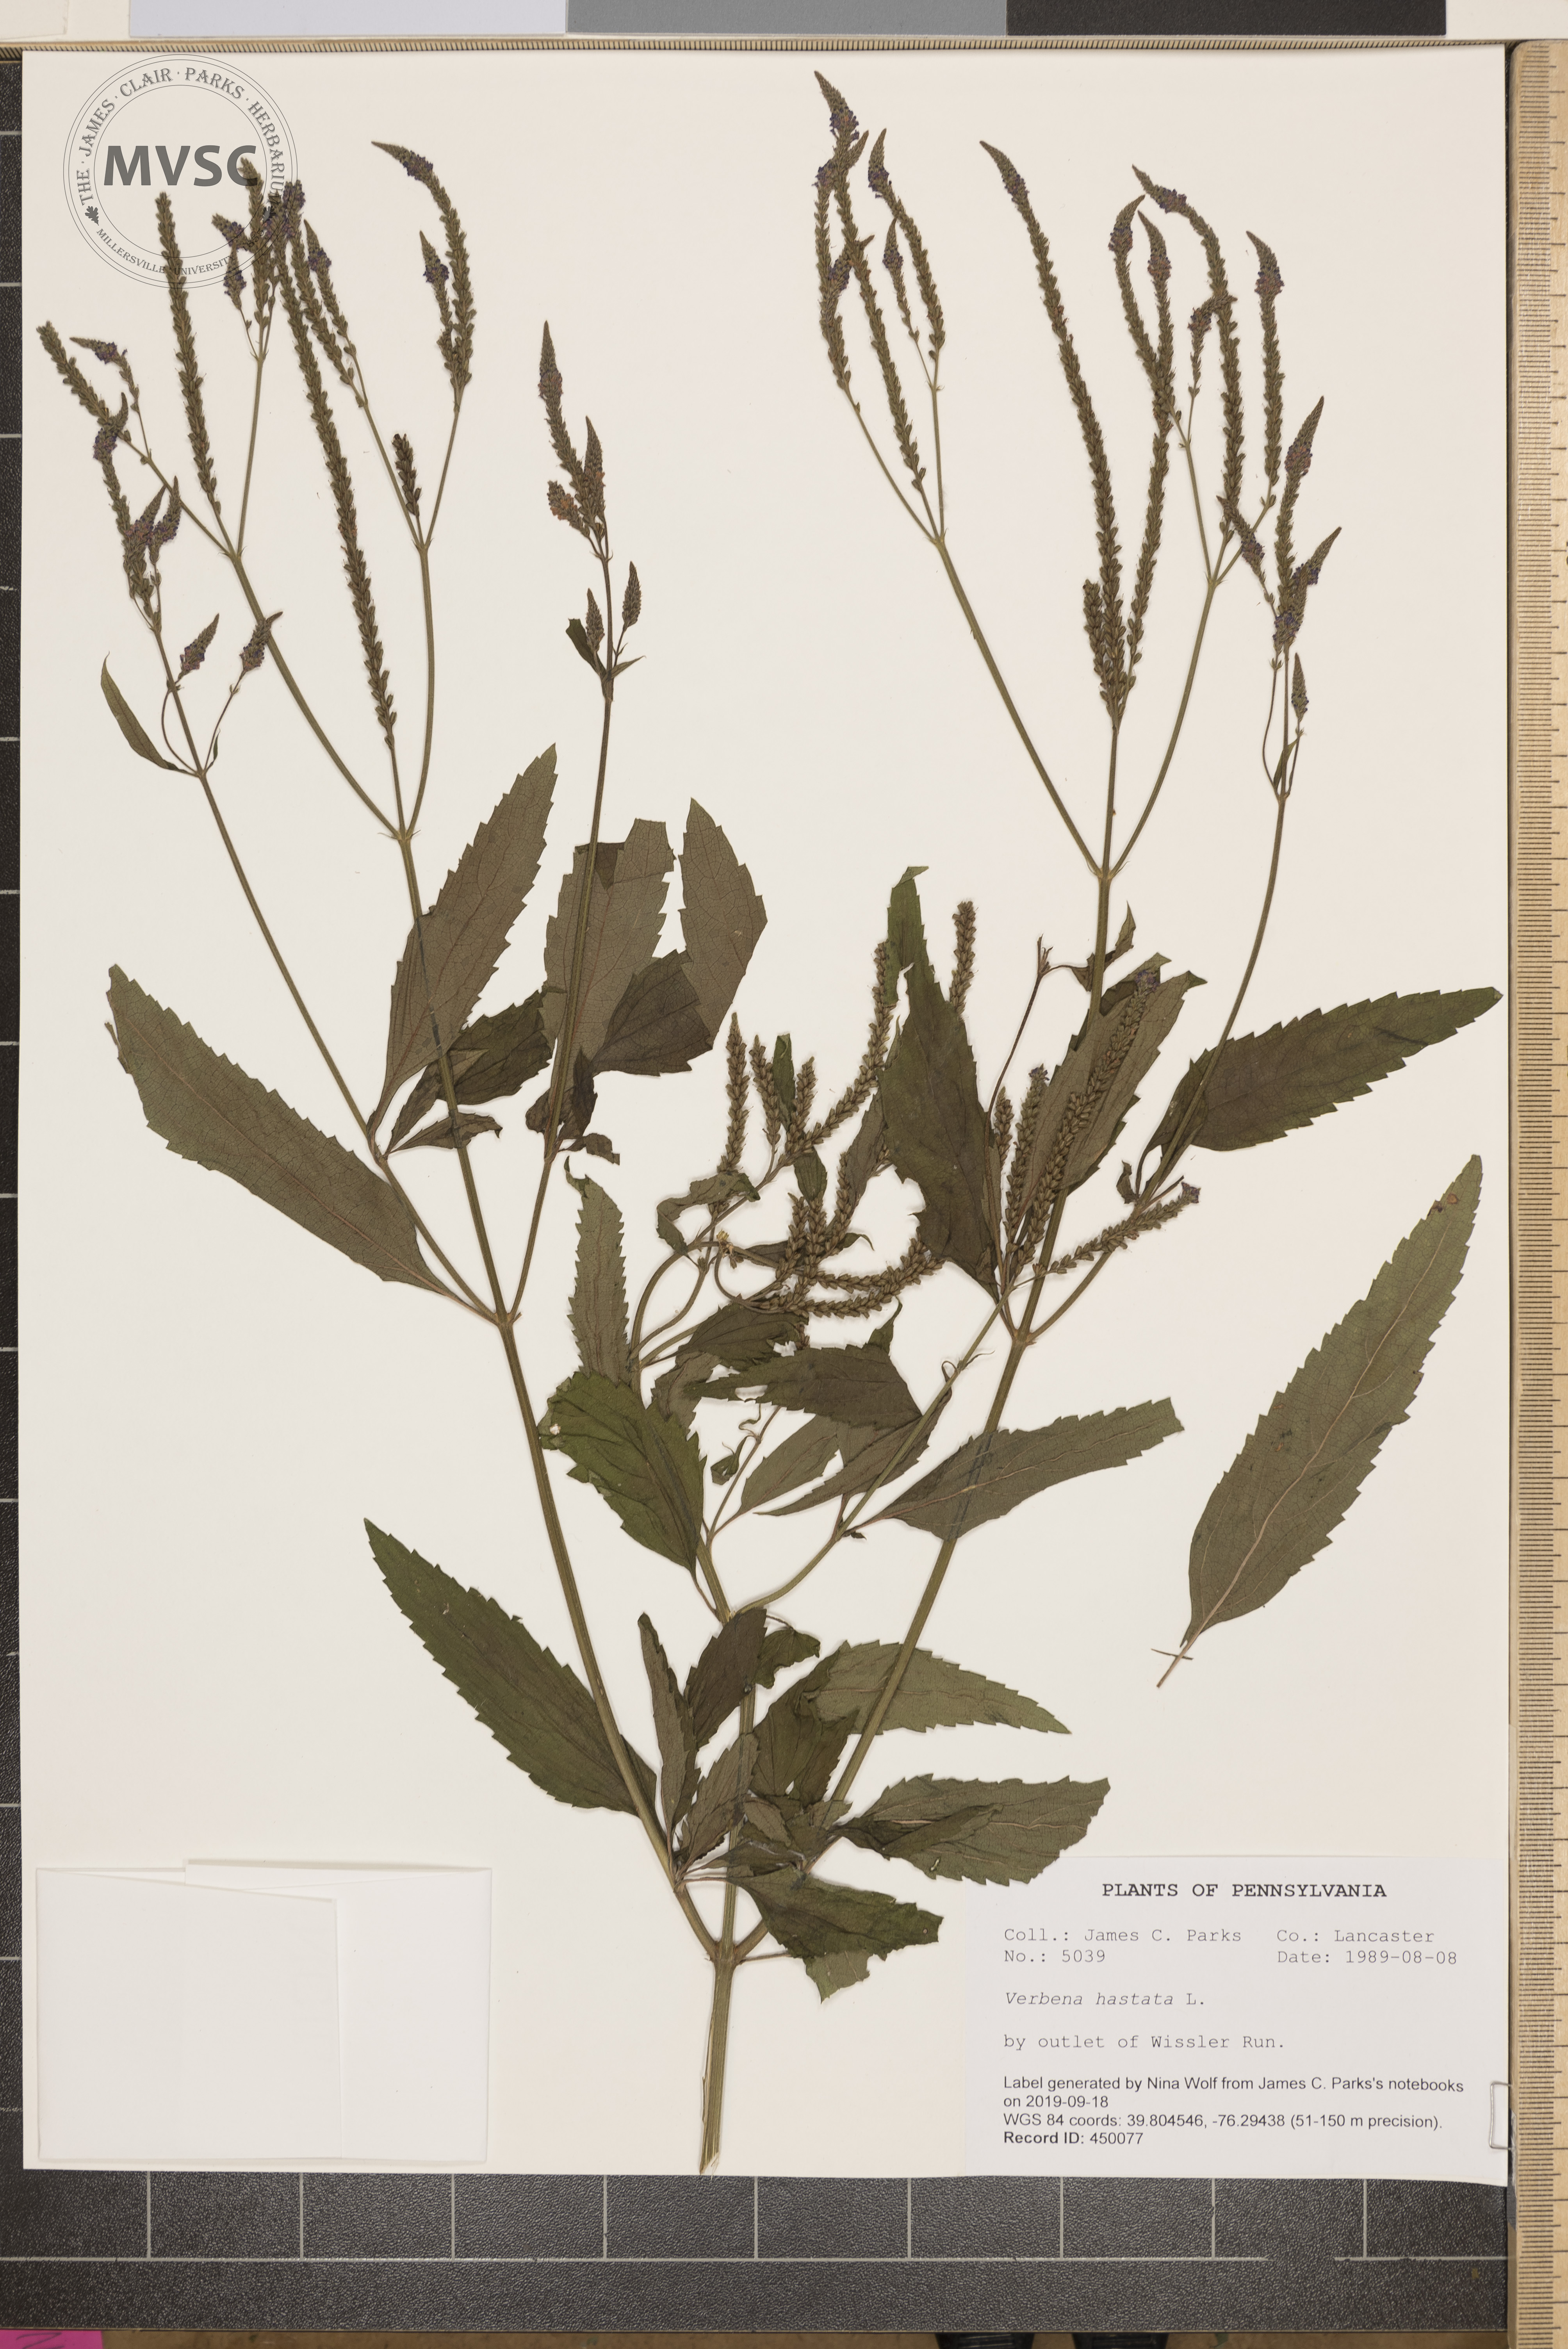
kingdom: Plantae
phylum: Tracheophyta
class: Magnoliopsida
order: Lamiales
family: Verbenaceae
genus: Verbena
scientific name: Verbena hastata
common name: American blue vervain
